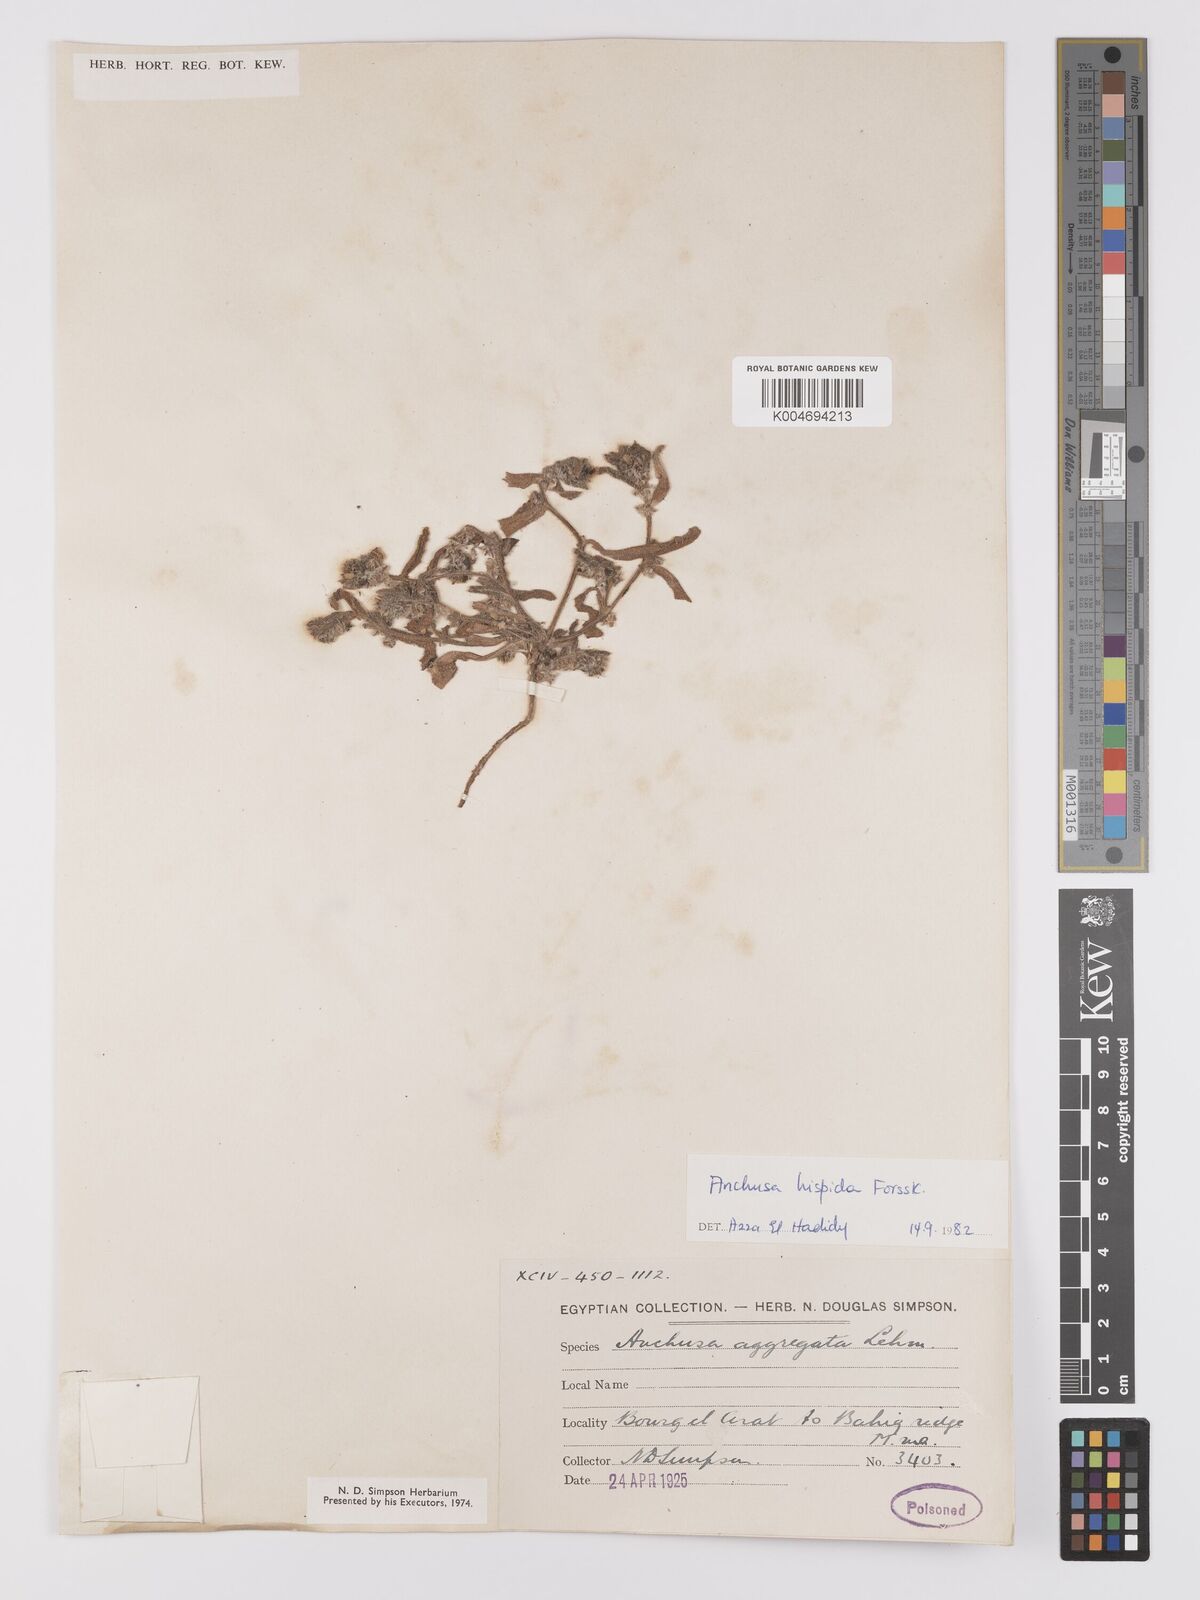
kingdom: Plantae
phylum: Tracheophyta
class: Magnoliopsida
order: Boraginales
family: Boraginaceae
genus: Gastrocotyle
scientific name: Gastrocotyle hispida
